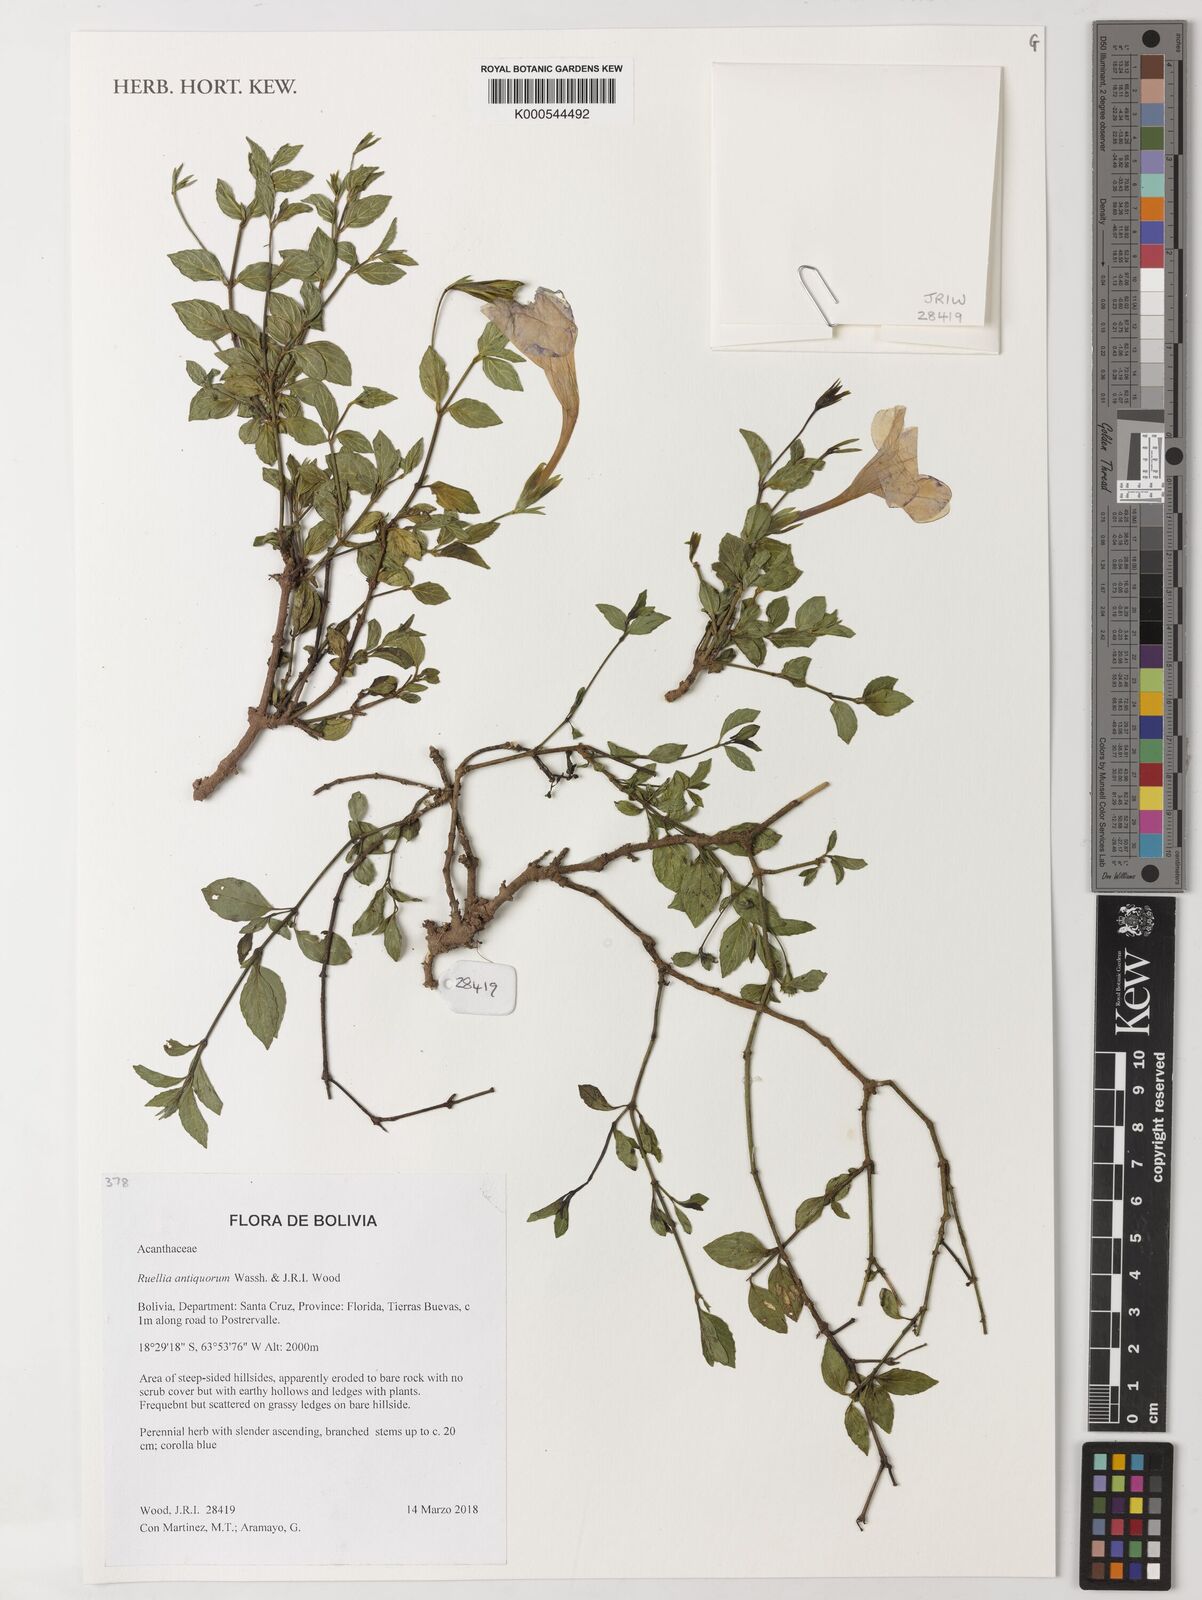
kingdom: Plantae
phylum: Tracheophyta
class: Magnoliopsida
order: Lamiales
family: Acanthaceae
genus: Ruellia
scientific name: Ruellia antiquorum
